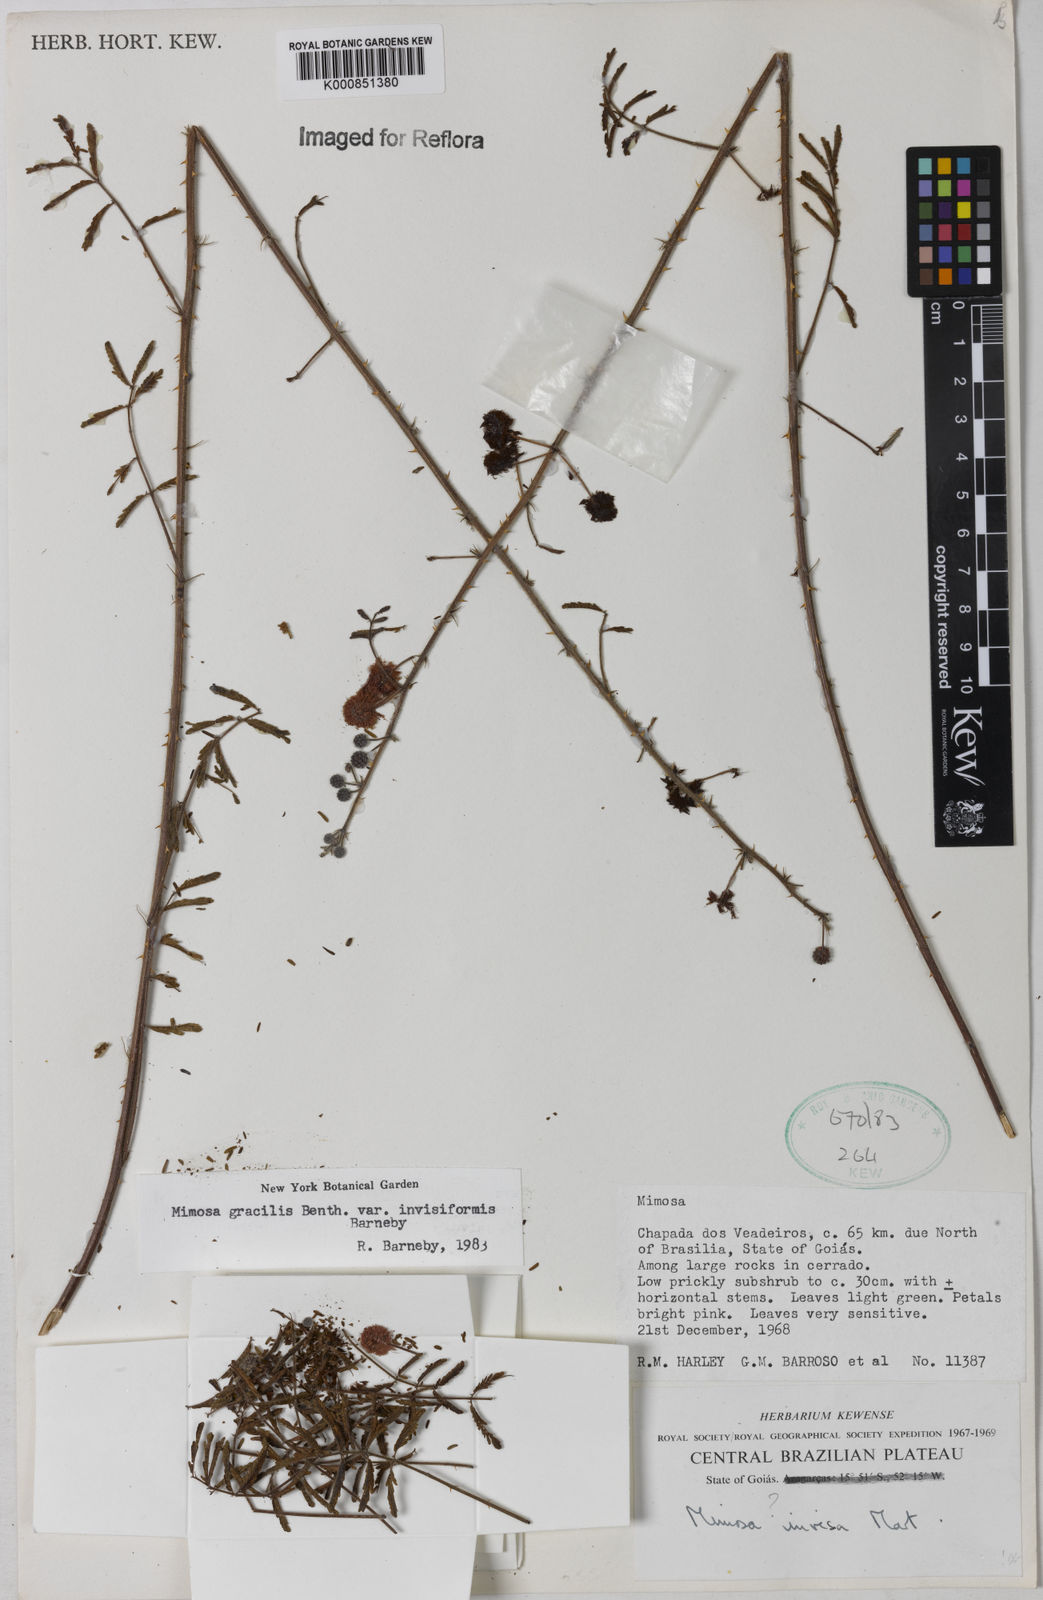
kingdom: Plantae
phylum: Tracheophyta
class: Magnoliopsida
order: Fabales
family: Fabaceae
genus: Mimosa
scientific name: Mimosa gracilis
